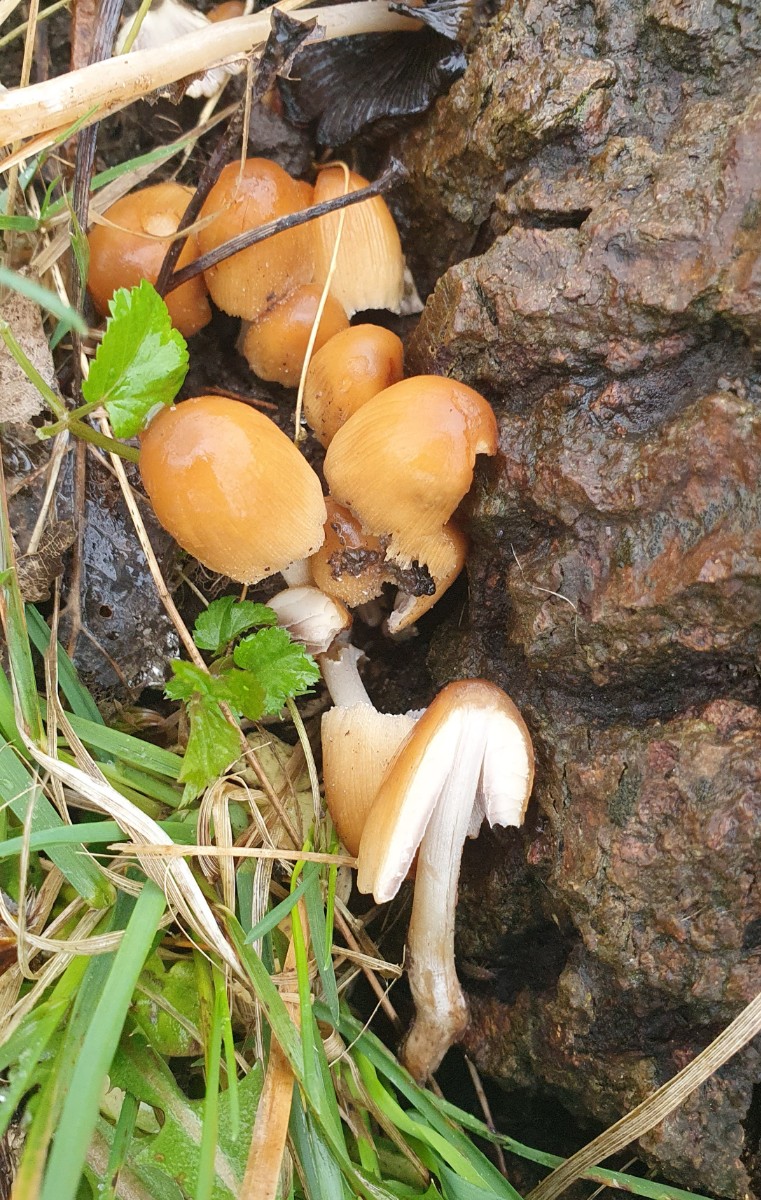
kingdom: Fungi
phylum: Basidiomycota
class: Agaricomycetes
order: Agaricales
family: Psathyrellaceae
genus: Coprinellus
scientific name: Coprinellus micaceus
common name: glimmer-blækhat
